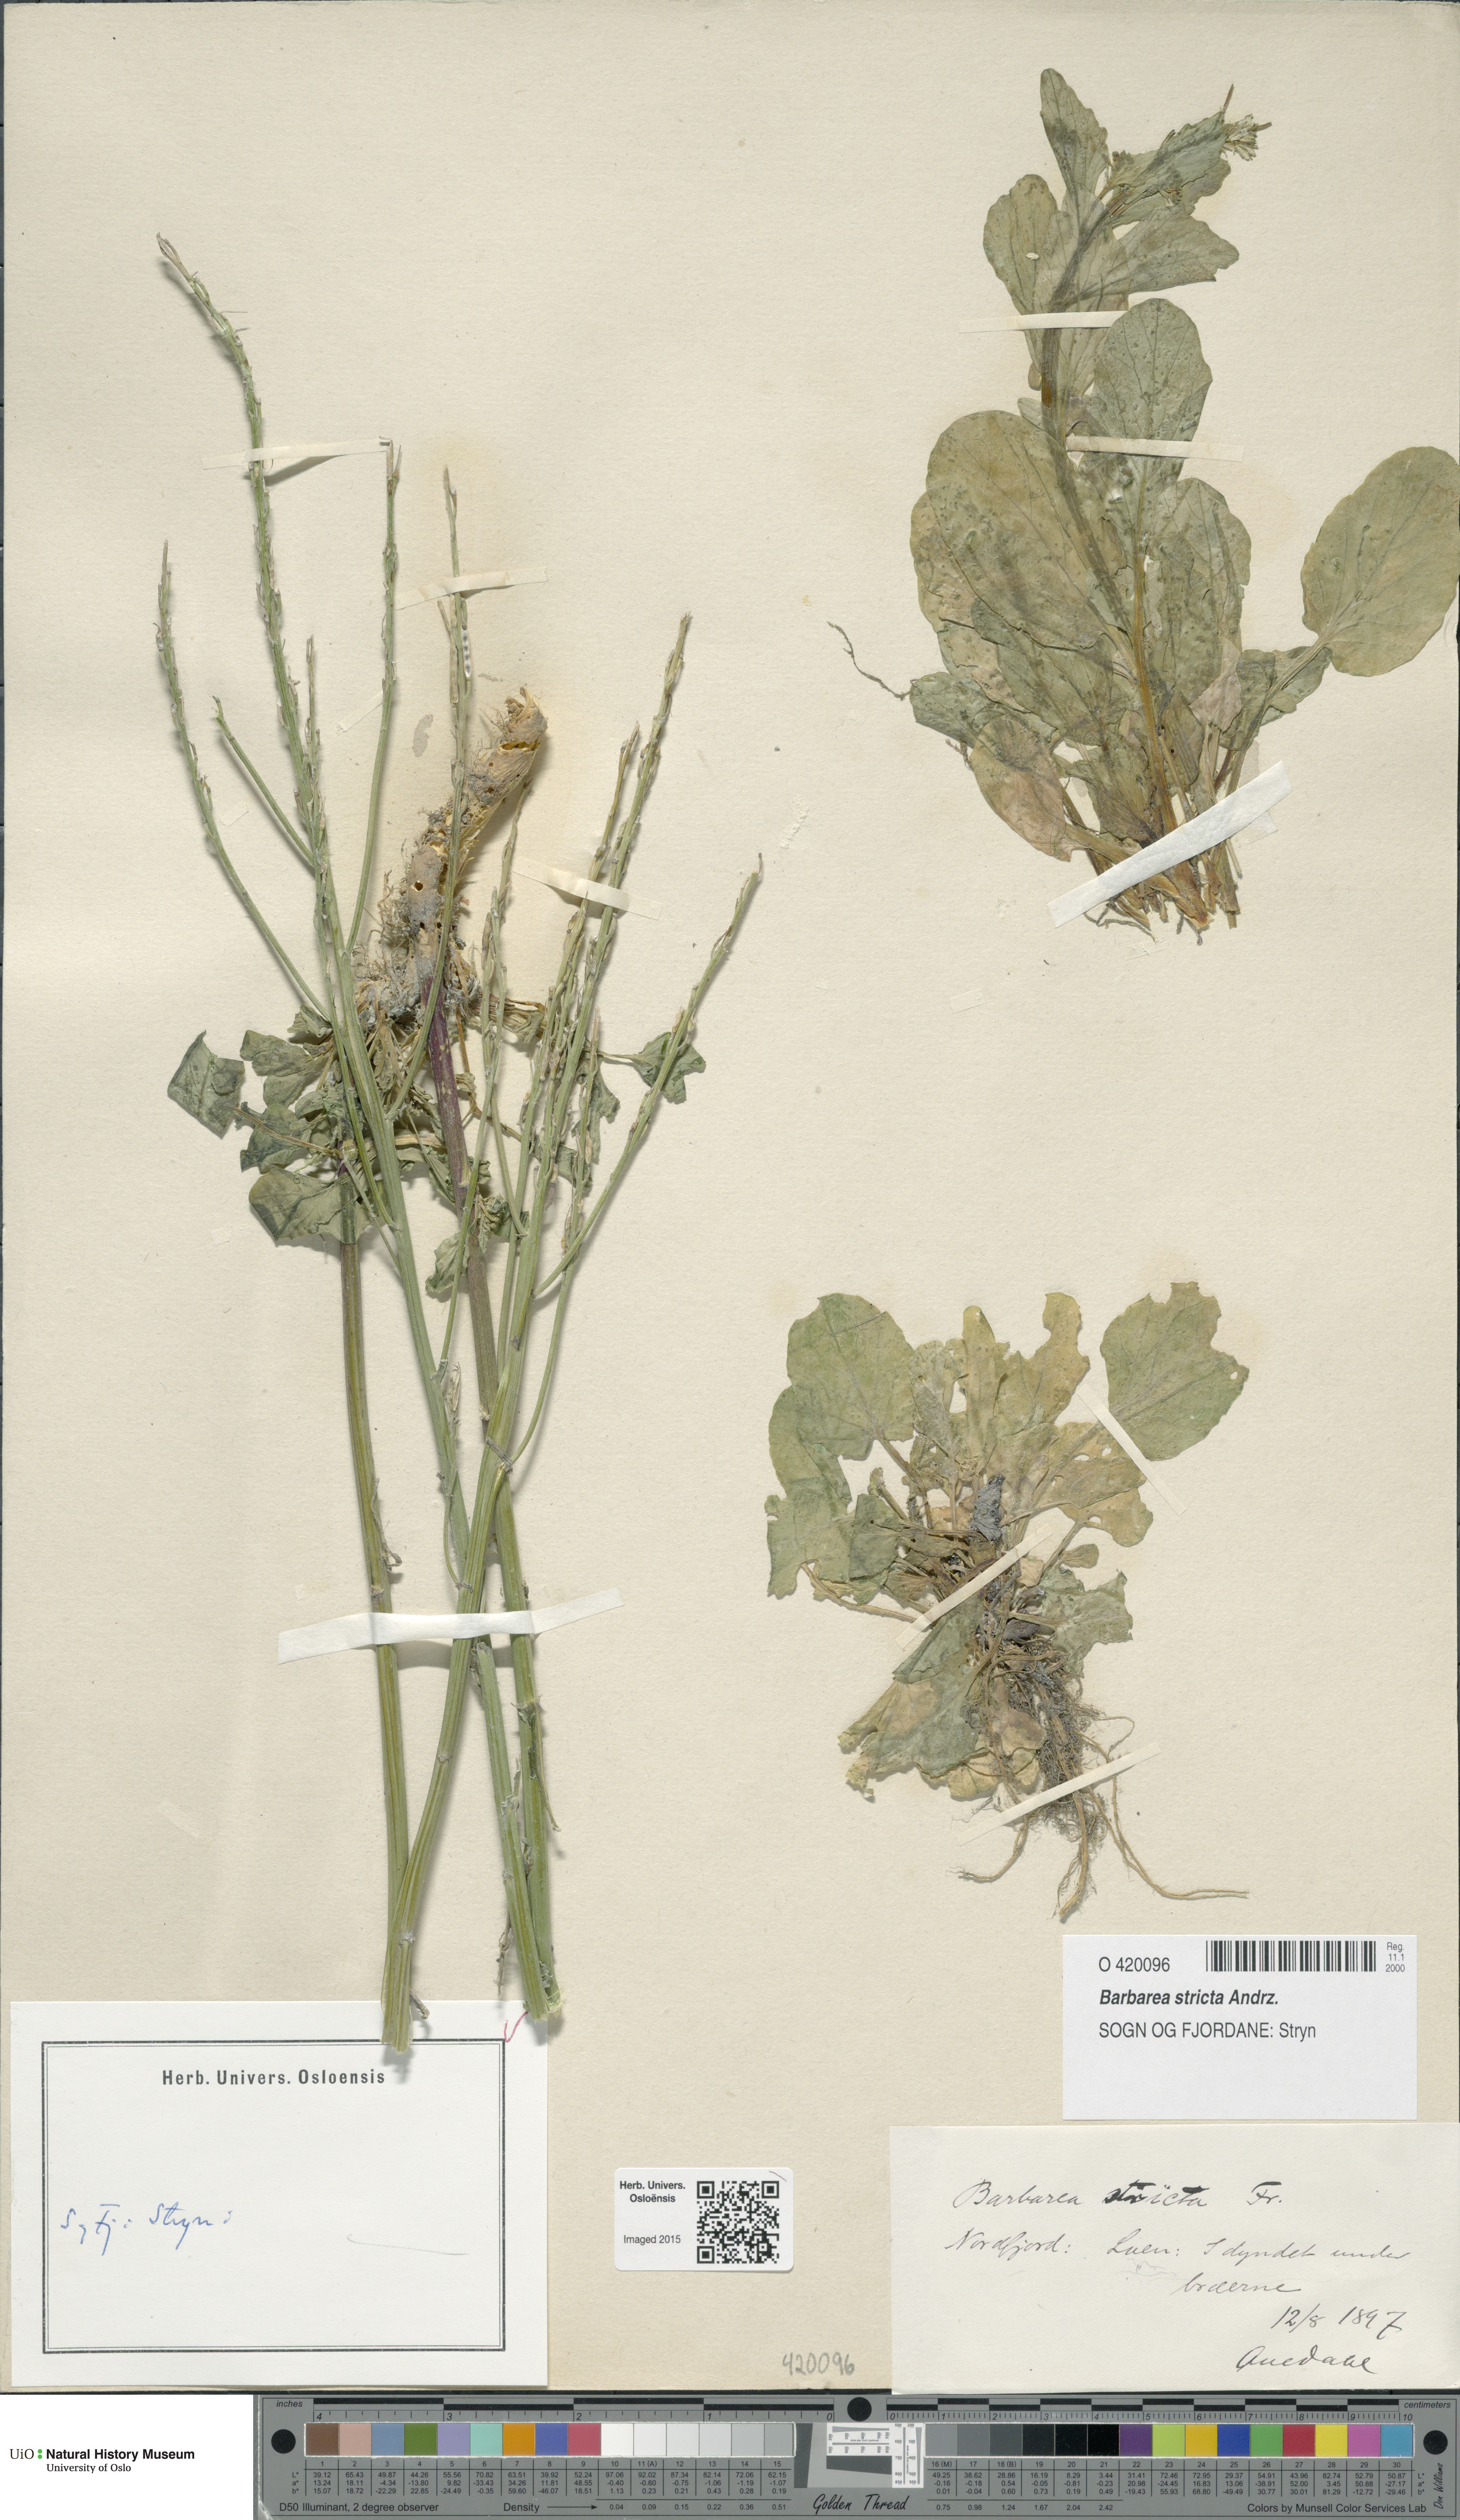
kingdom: Plantae
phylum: Tracheophyta
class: Magnoliopsida
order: Brassicales
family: Brassicaceae
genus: Barbarea
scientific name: Barbarea stricta
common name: Small-flowered winter-cress
